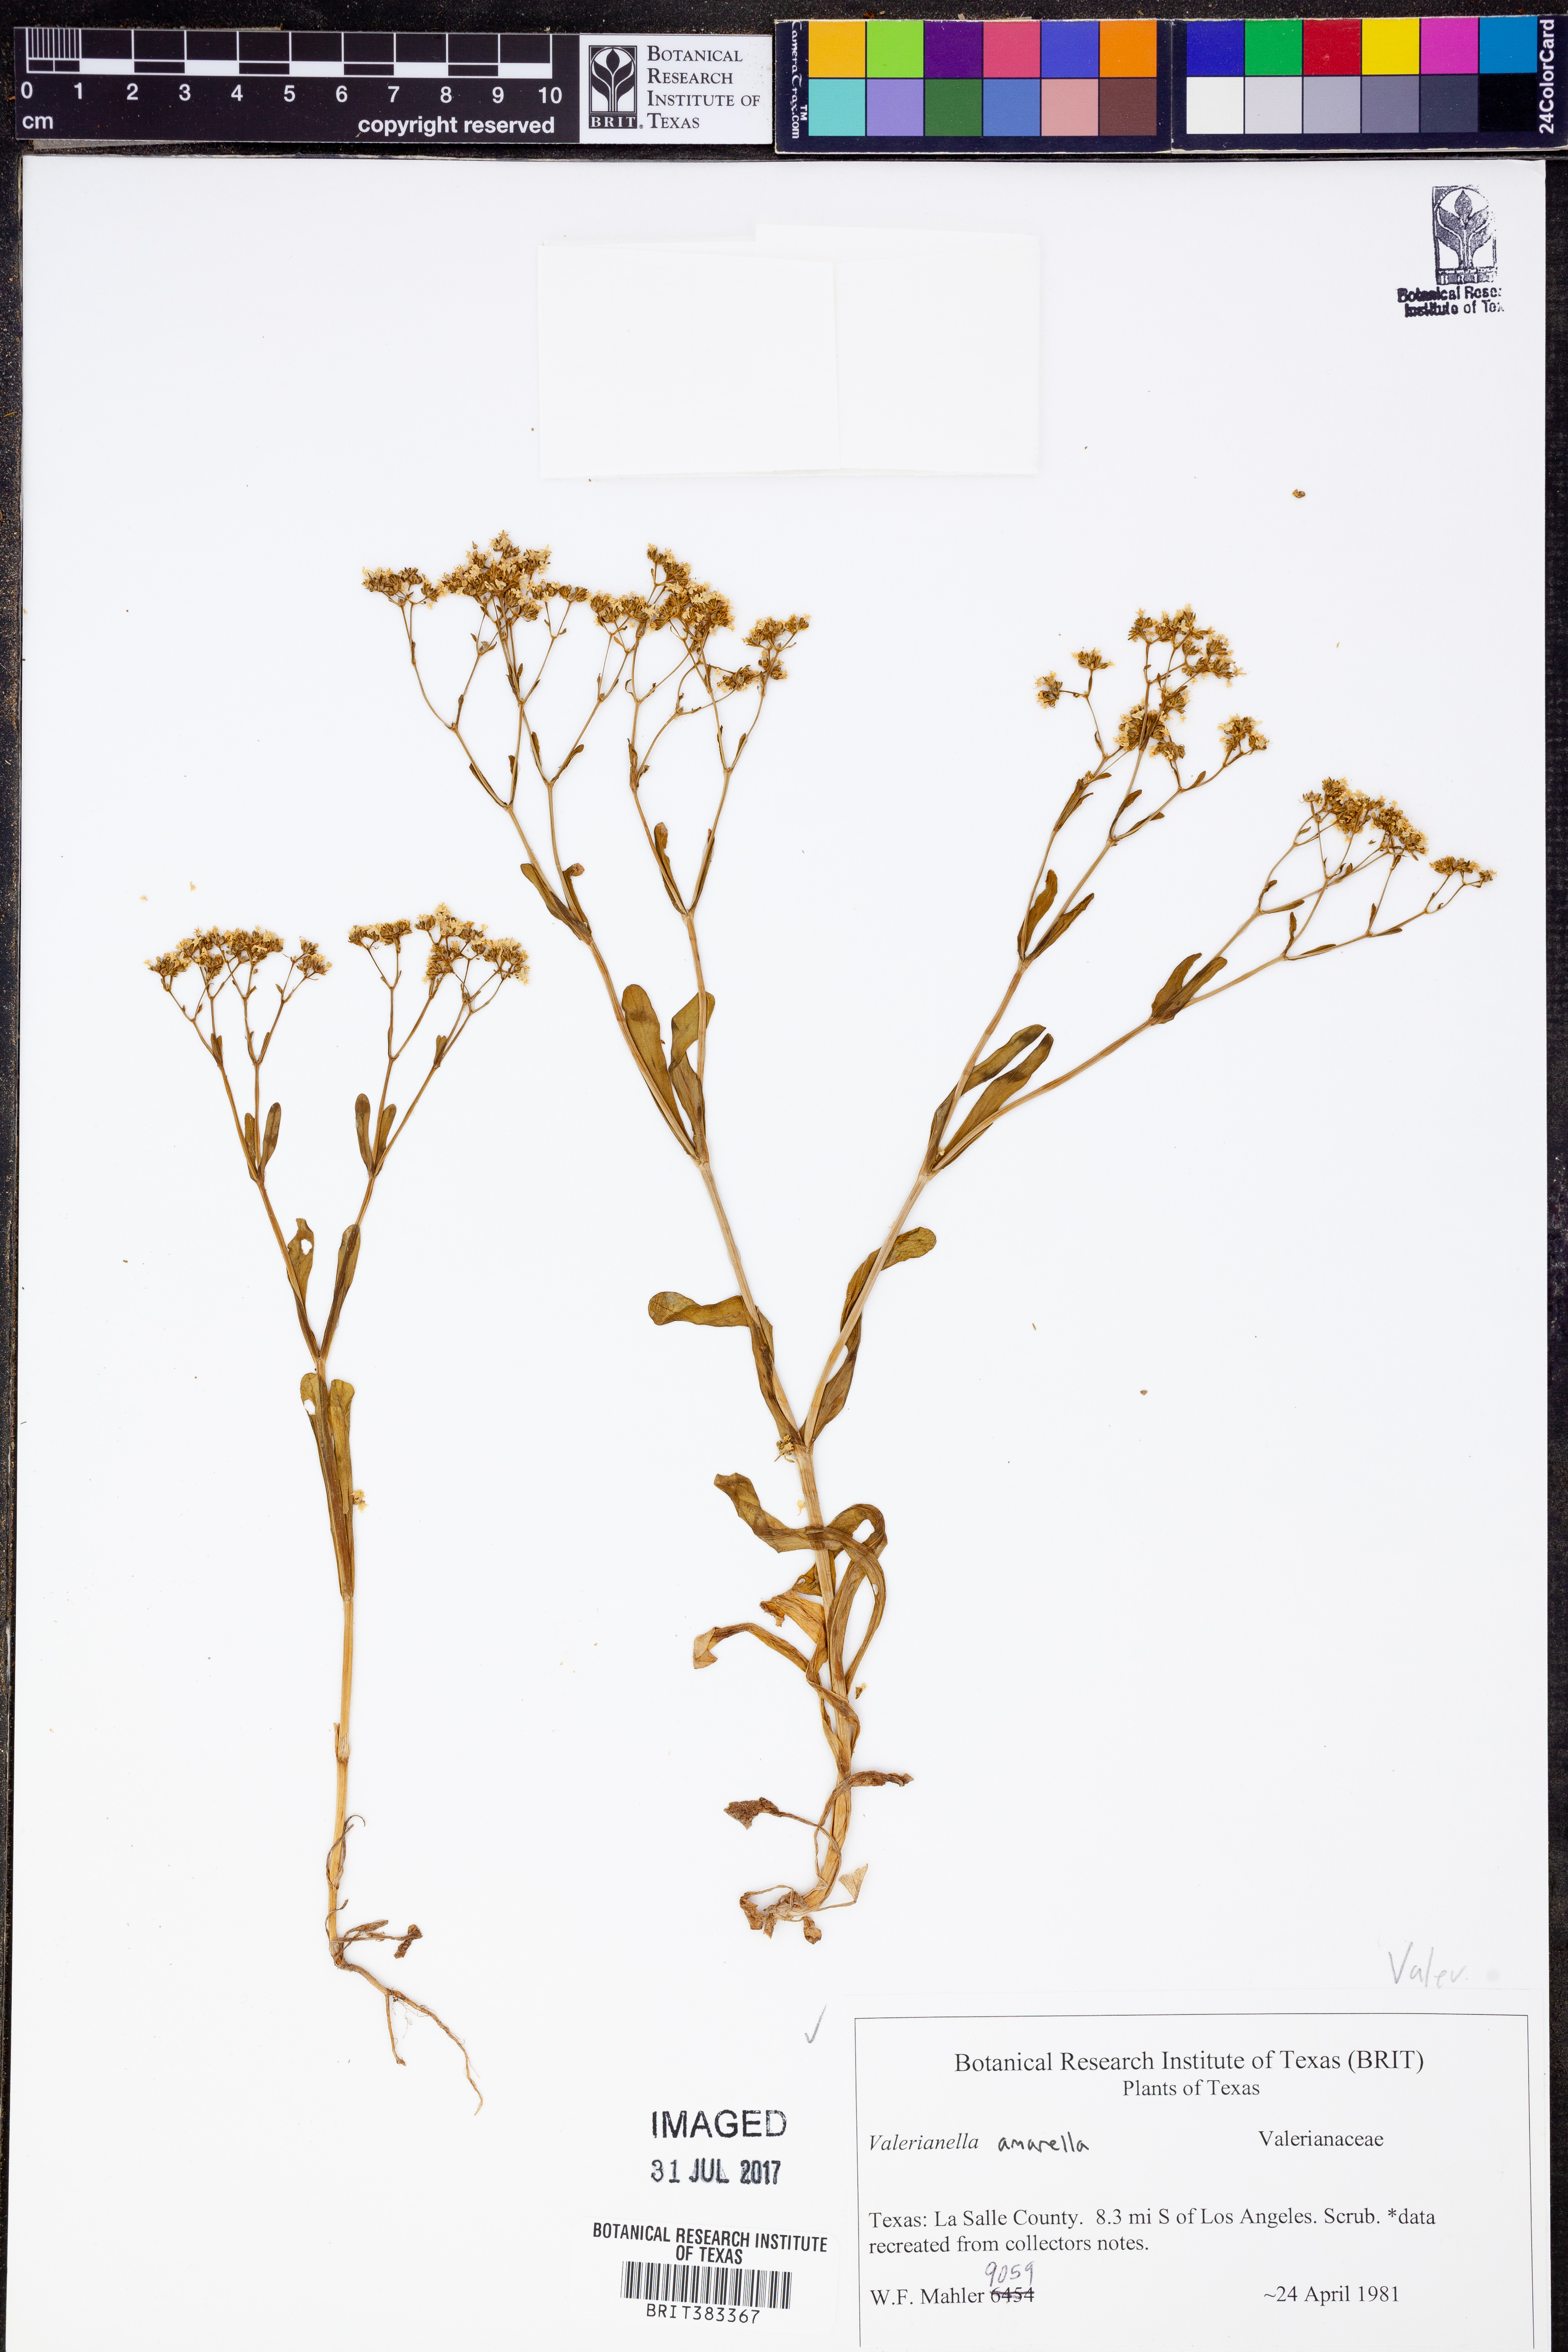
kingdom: Plantae
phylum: Tracheophyta
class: Magnoliopsida
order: Dipsacales
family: Caprifoliaceae
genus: Valerianella
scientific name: Valerianella amarella
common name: Hariy cornsalad
